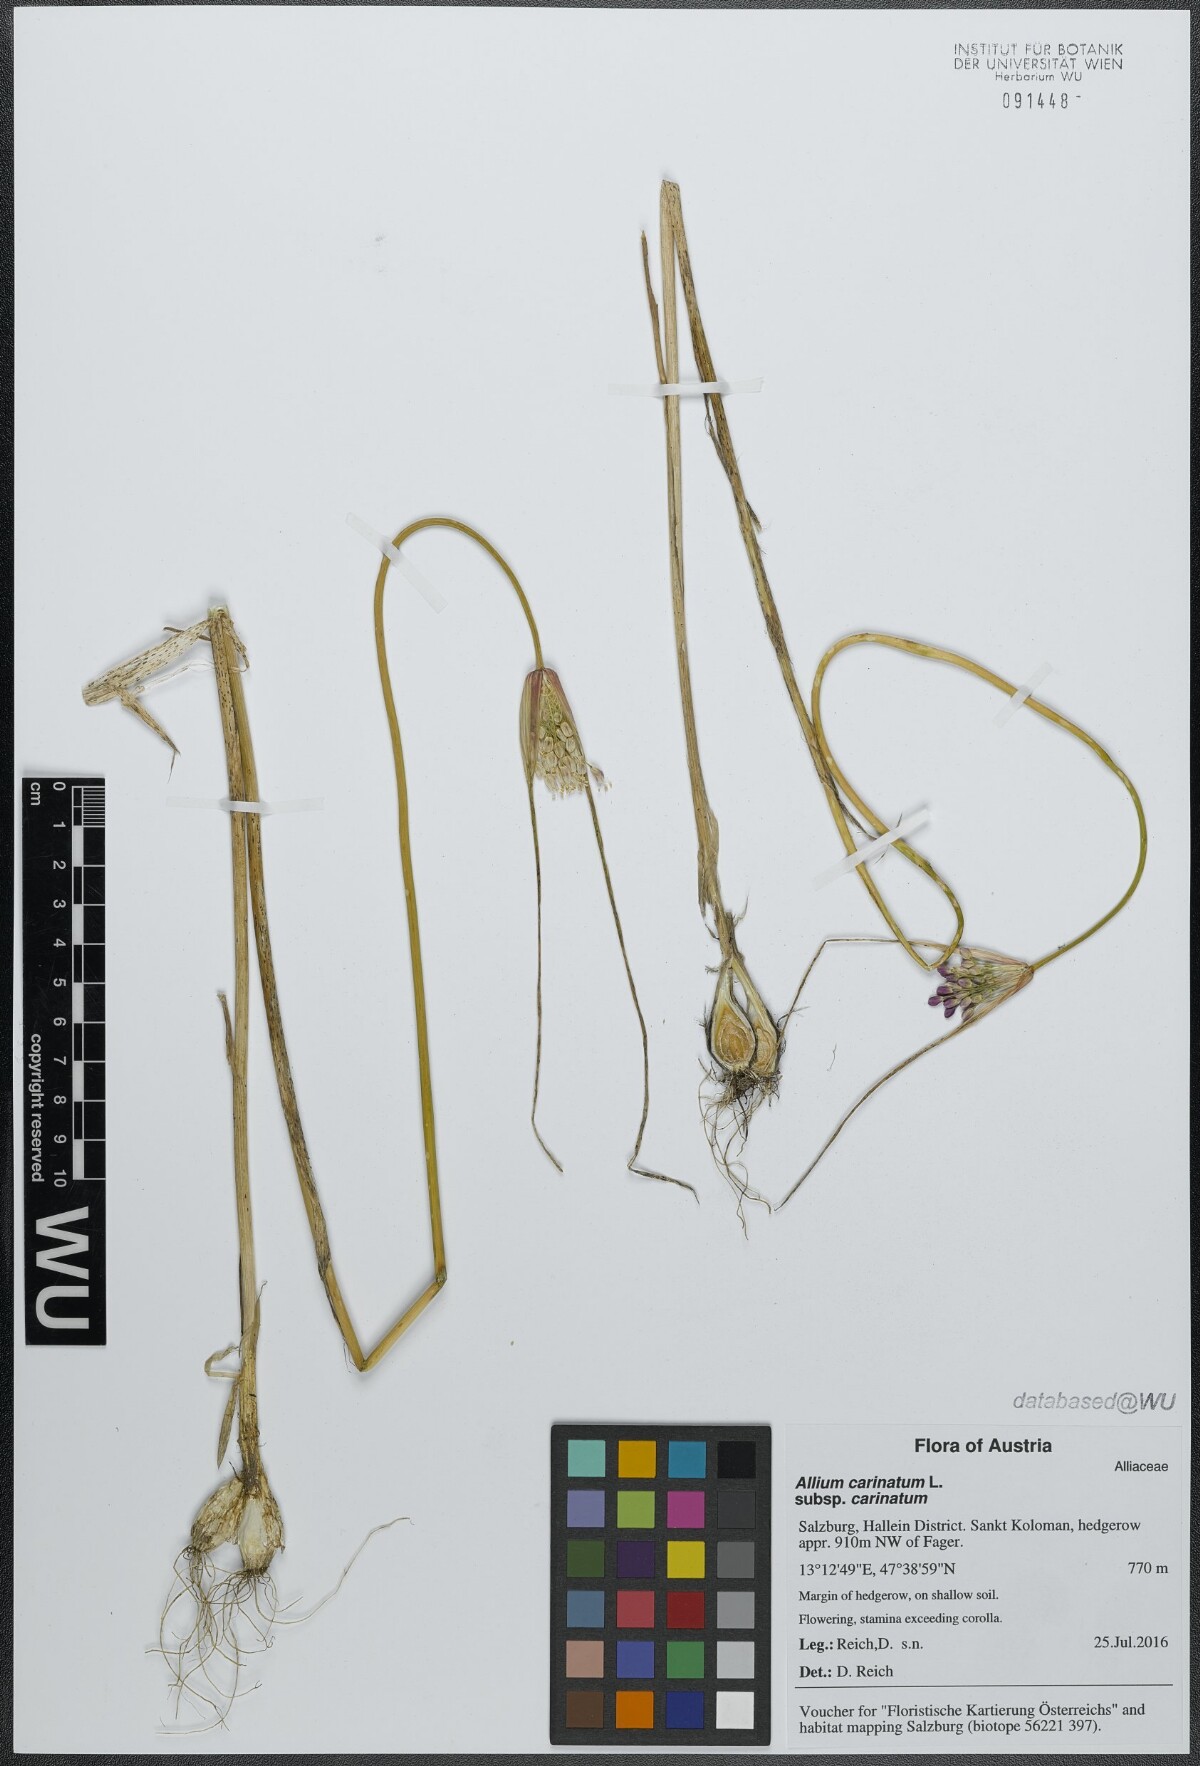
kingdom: Plantae
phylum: Tracheophyta
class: Liliopsida
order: Asparagales
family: Amaryllidaceae
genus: Allium
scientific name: Allium carinatum
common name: Keeled garlic
